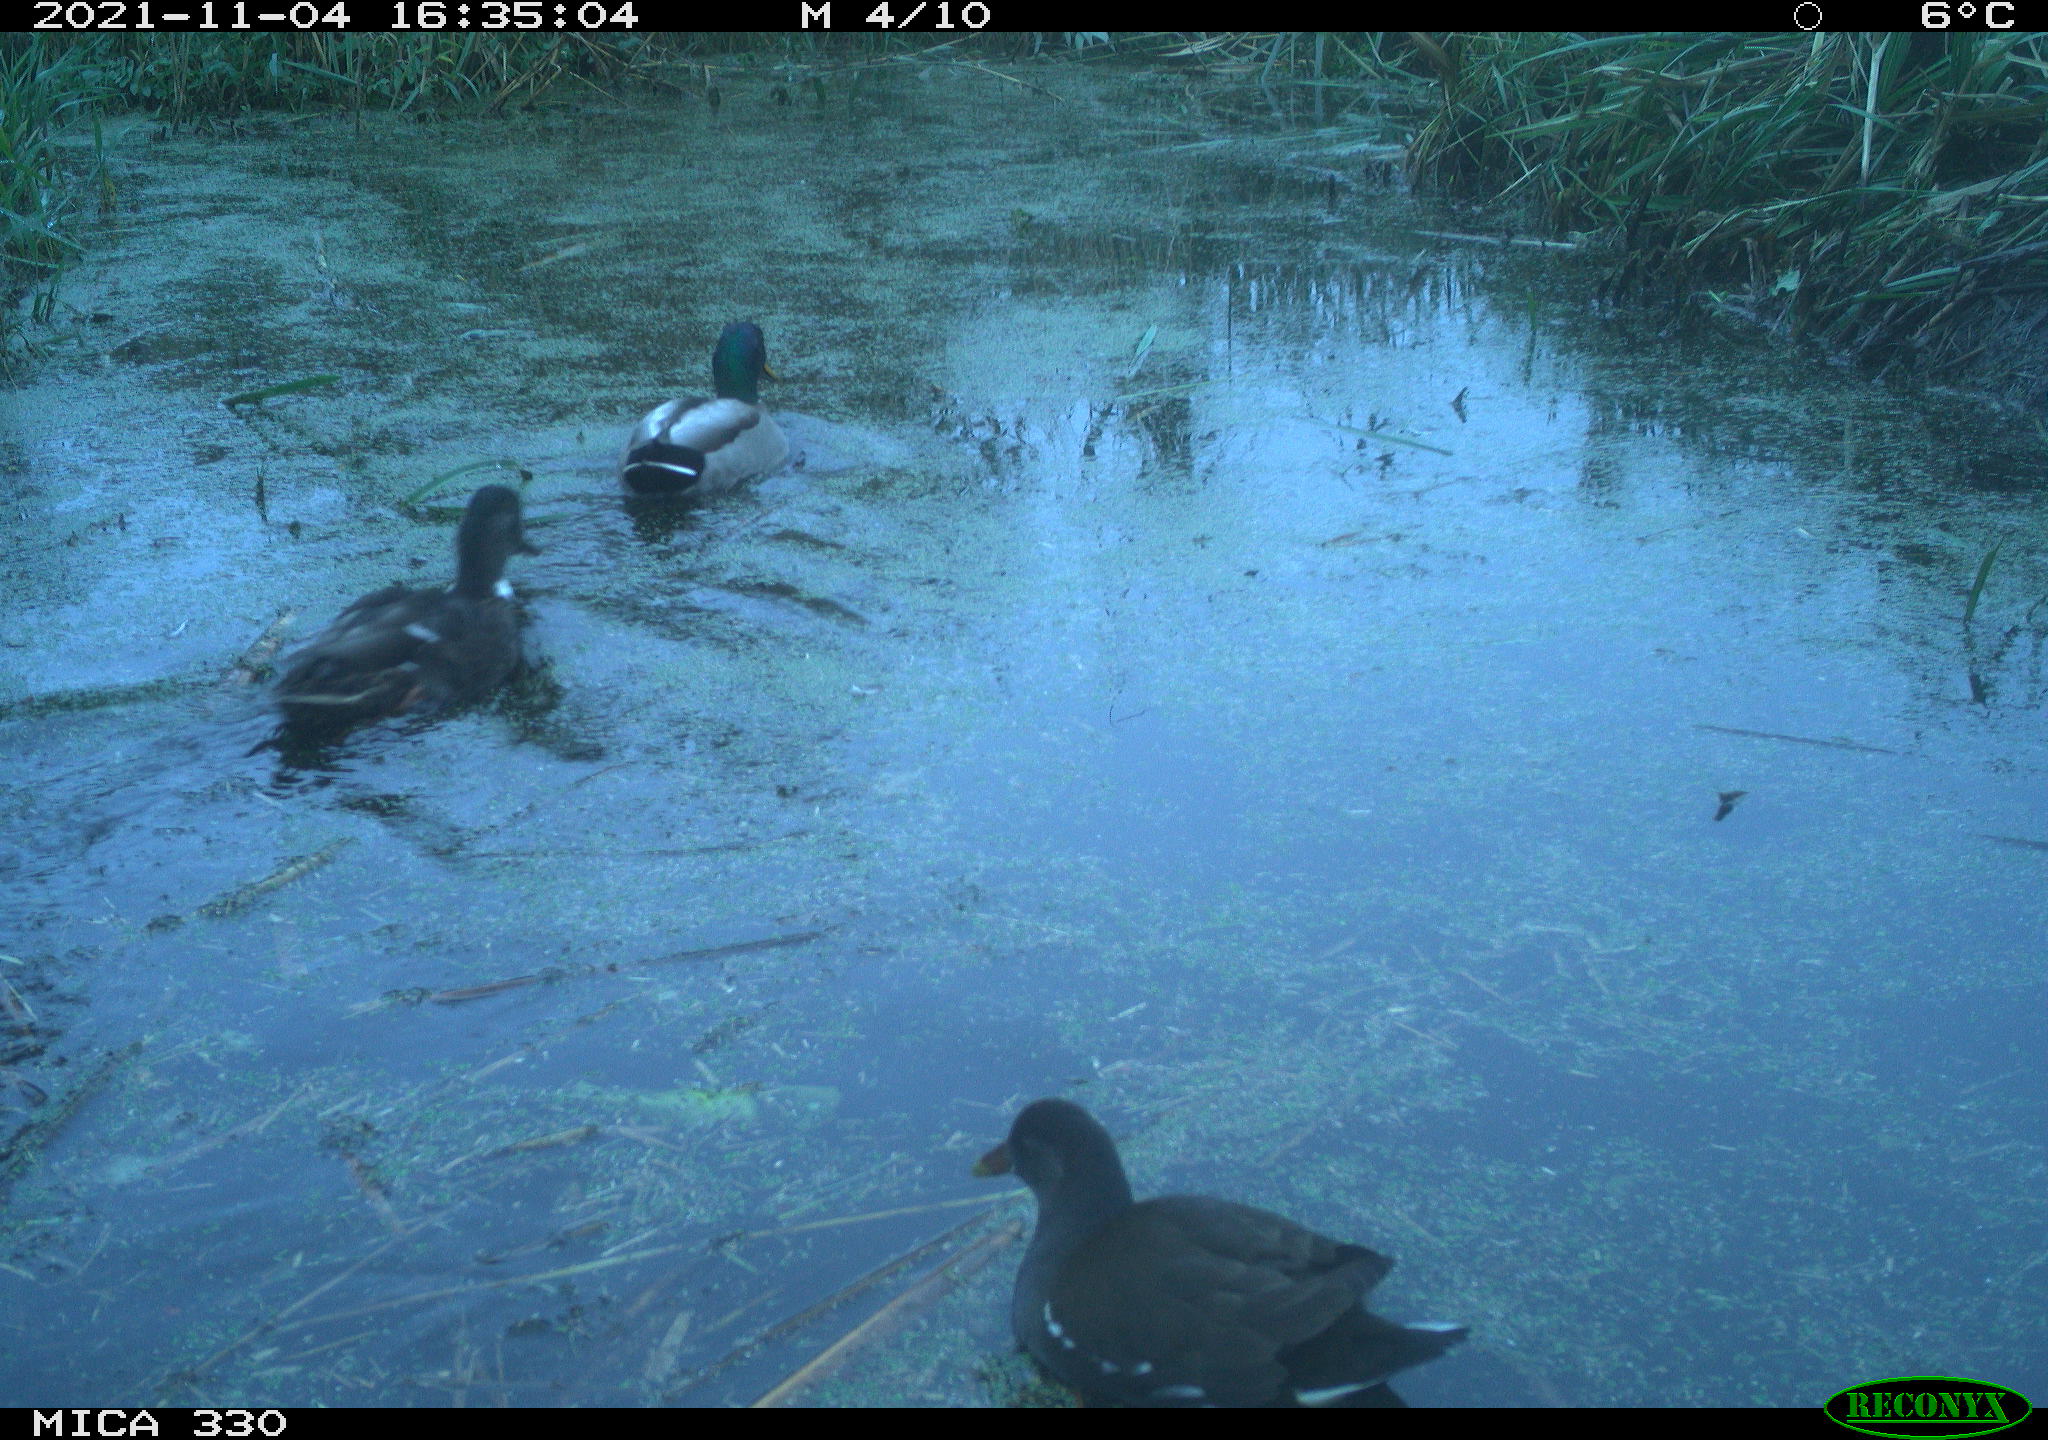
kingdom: Animalia
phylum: Chordata
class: Aves
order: Anseriformes
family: Anatidae
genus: Anas
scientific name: Anas platyrhynchos
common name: Mallard
